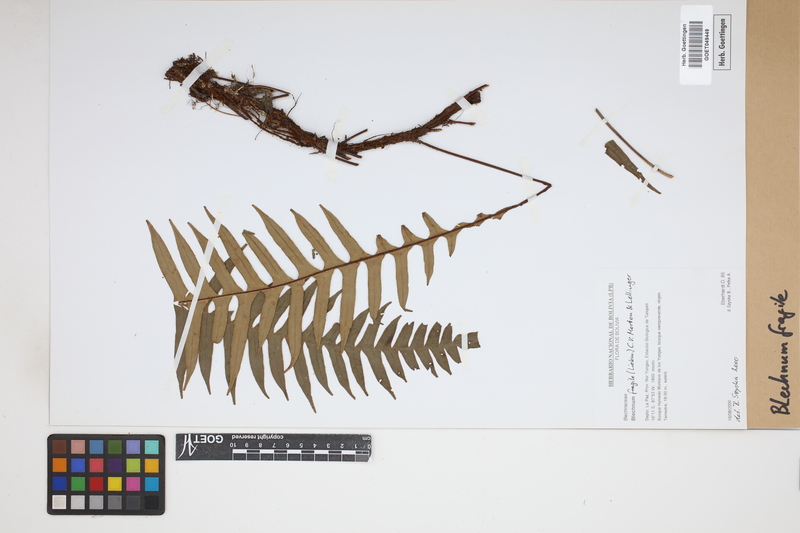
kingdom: Plantae
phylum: Tracheophyta
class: Polypodiopsida
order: Polypodiales
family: Blechnaceae
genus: Lomaridium
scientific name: Lomaridium fragile
